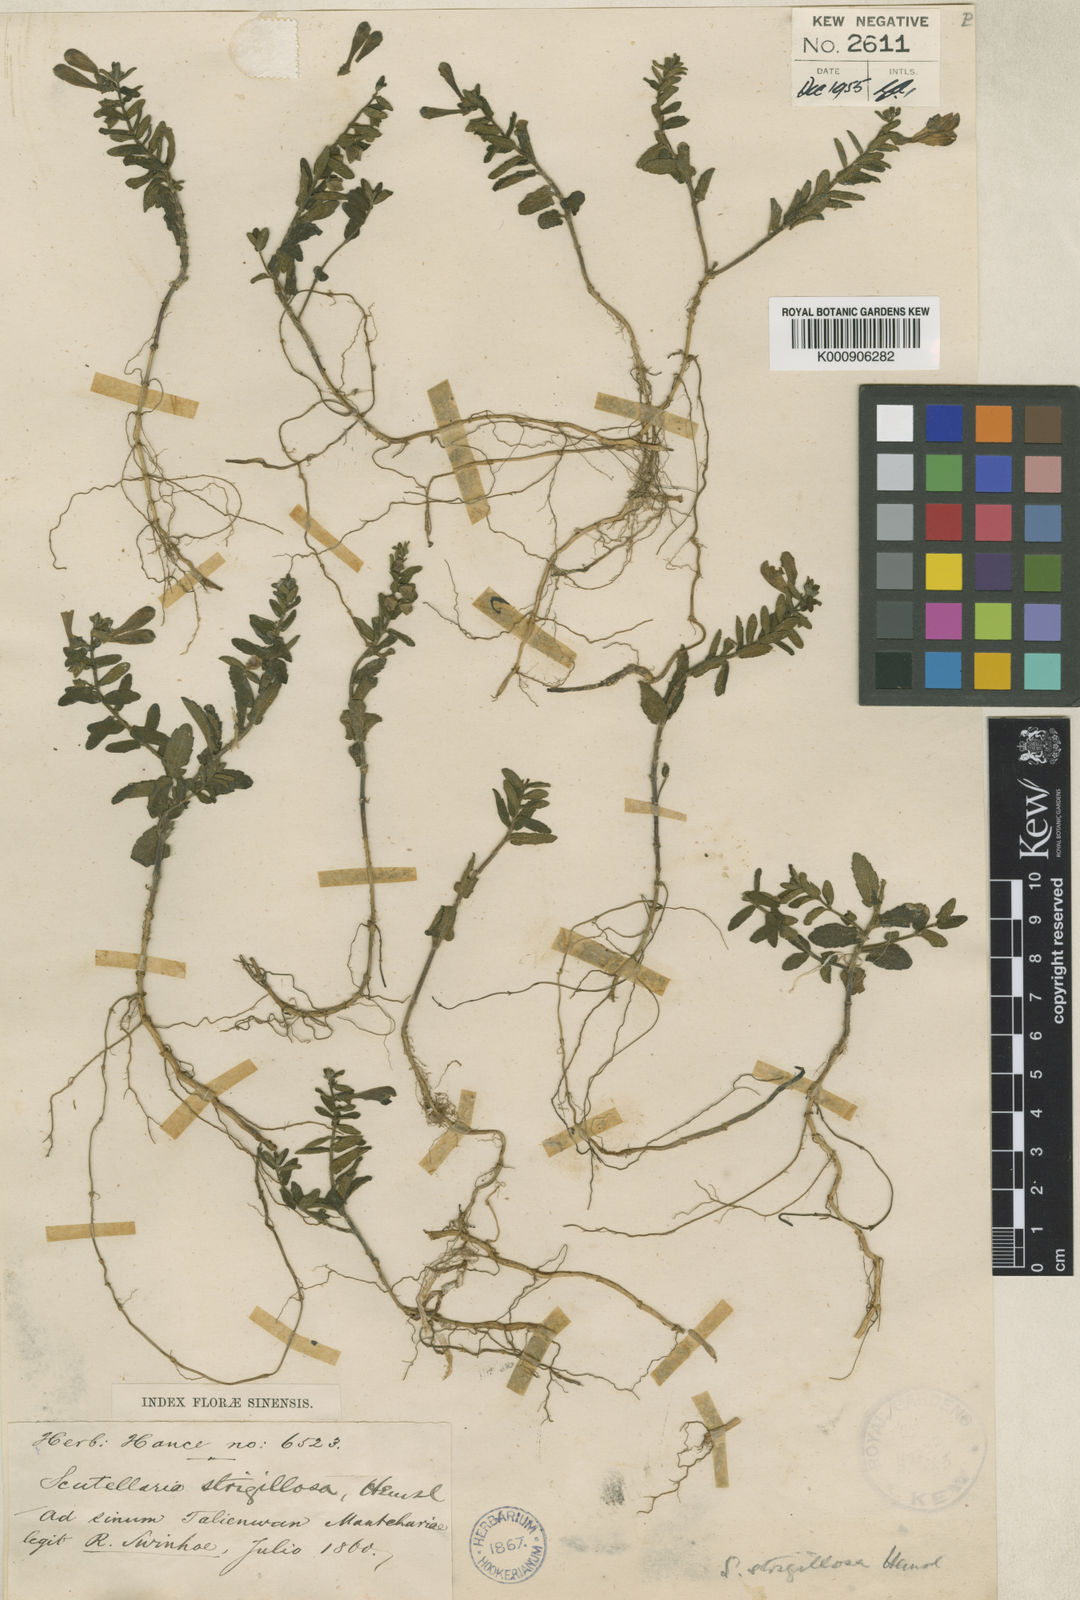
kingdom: Plantae
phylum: Tracheophyta
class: Magnoliopsida
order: Lamiales
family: Lamiaceae
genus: Scutellaria
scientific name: Scutellaria strigillosa
